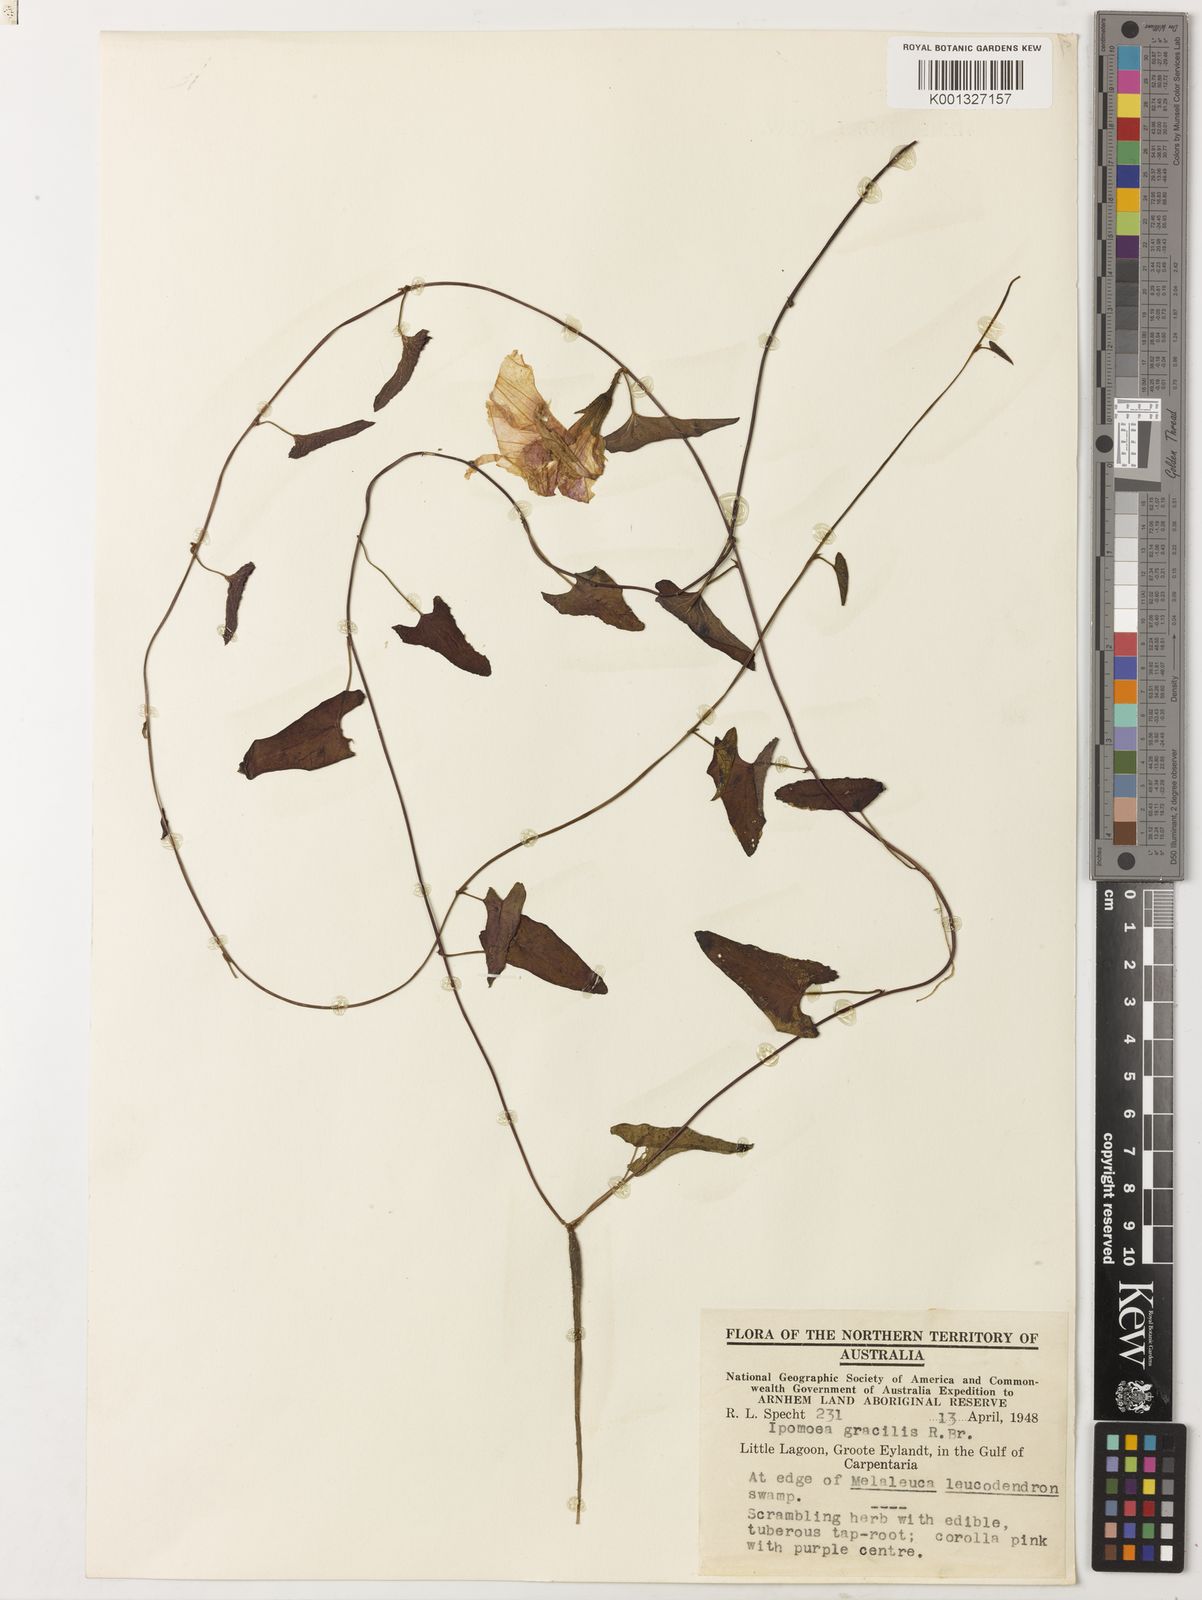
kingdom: Plantae
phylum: Tracheophyta
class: Magnoliopsida
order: Solanales
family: Convolvulaceae
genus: Ipomoea
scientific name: Ipomoea gracilis
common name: Almor-ira
